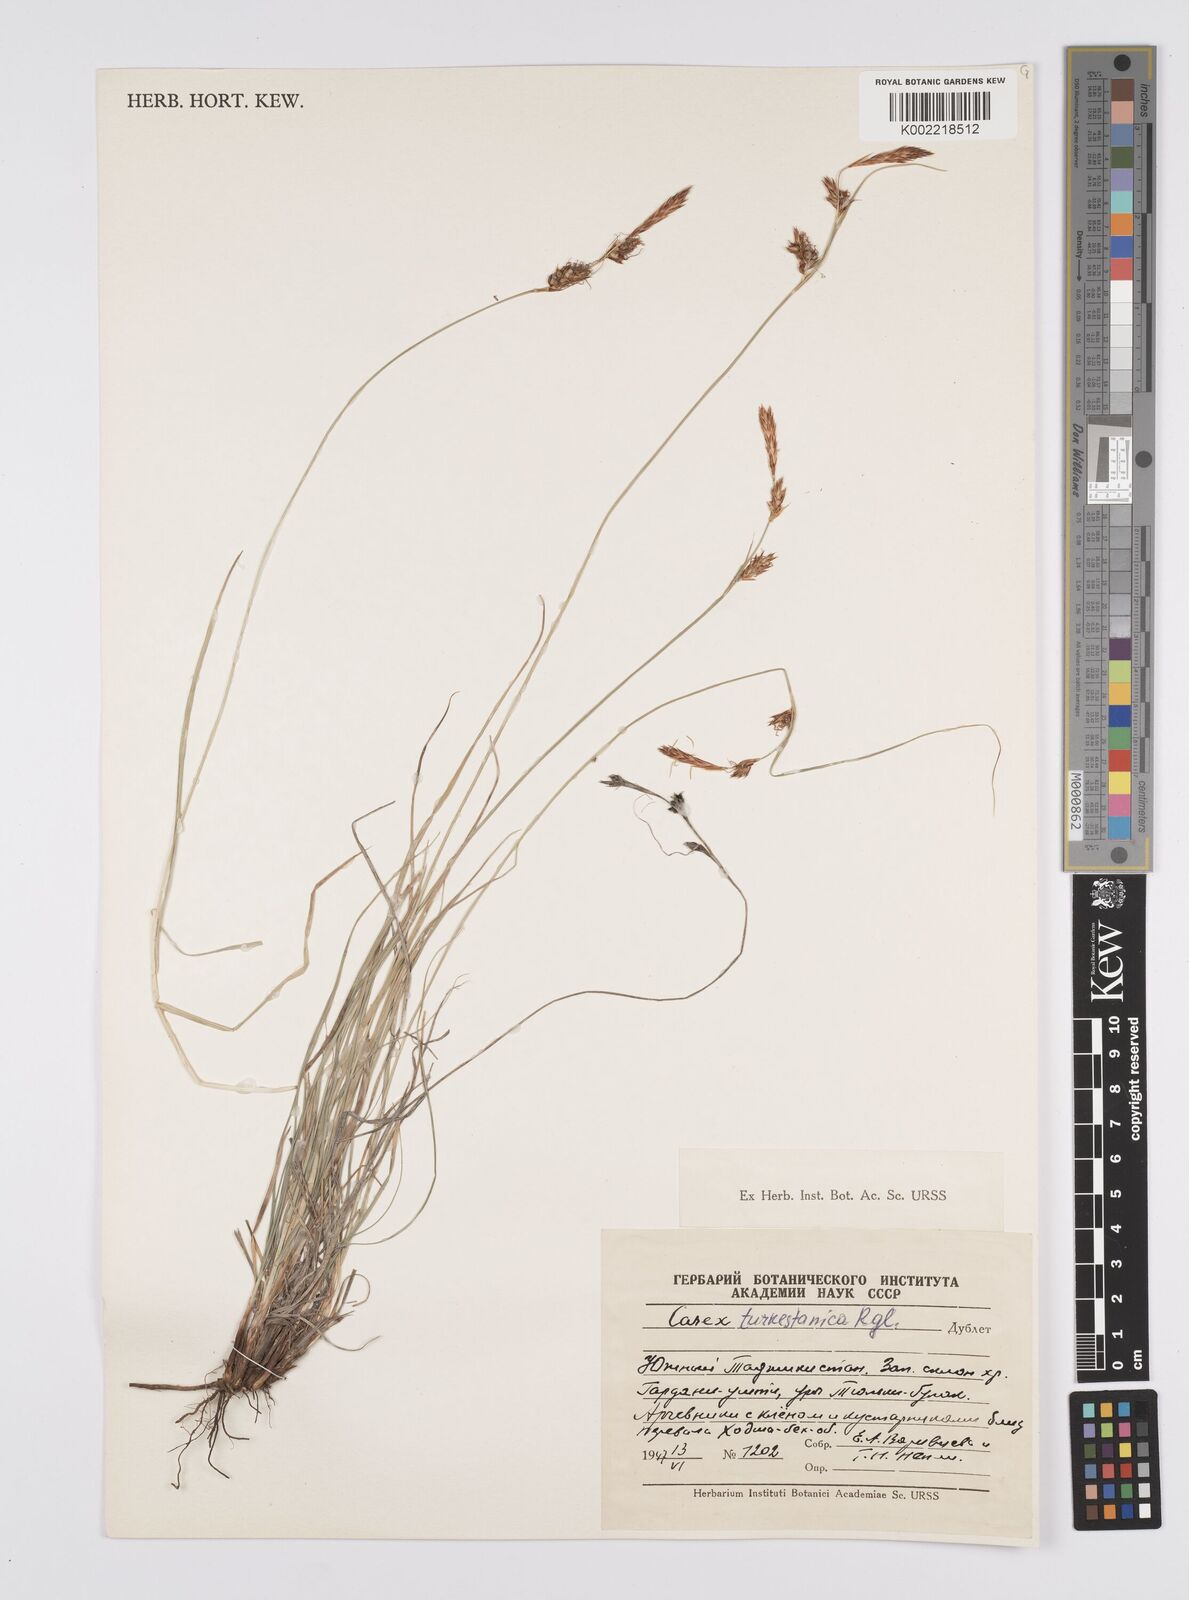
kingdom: Plantae
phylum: Tracheophyta
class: Liliopsida
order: Poales
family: Cyperaceae
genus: Carex
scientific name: Carex liparocarpos
